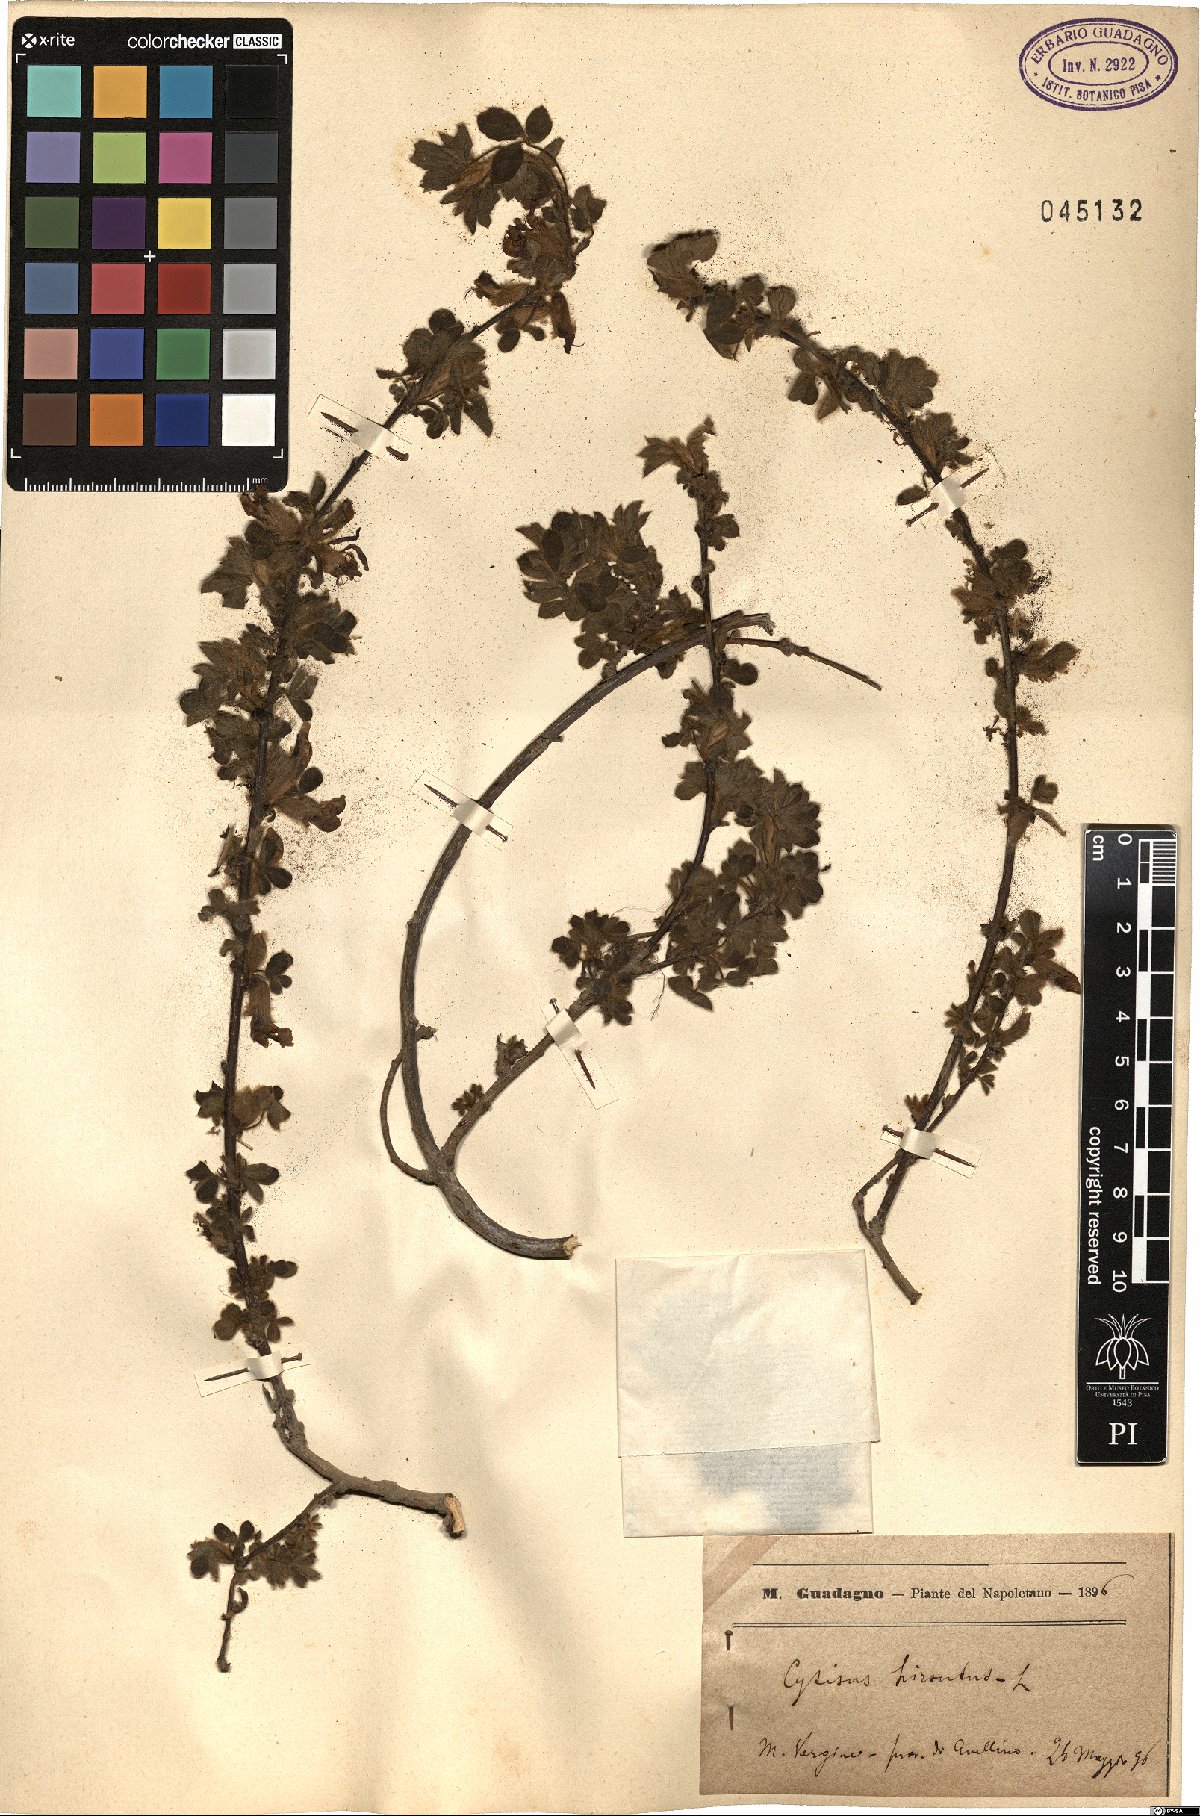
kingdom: Plantae
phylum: Tracheophyta
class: Magnoliopsida
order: Fabales
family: Fabaceae
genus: Chamaecytisus
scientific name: Chamaecytisus hirsutus
